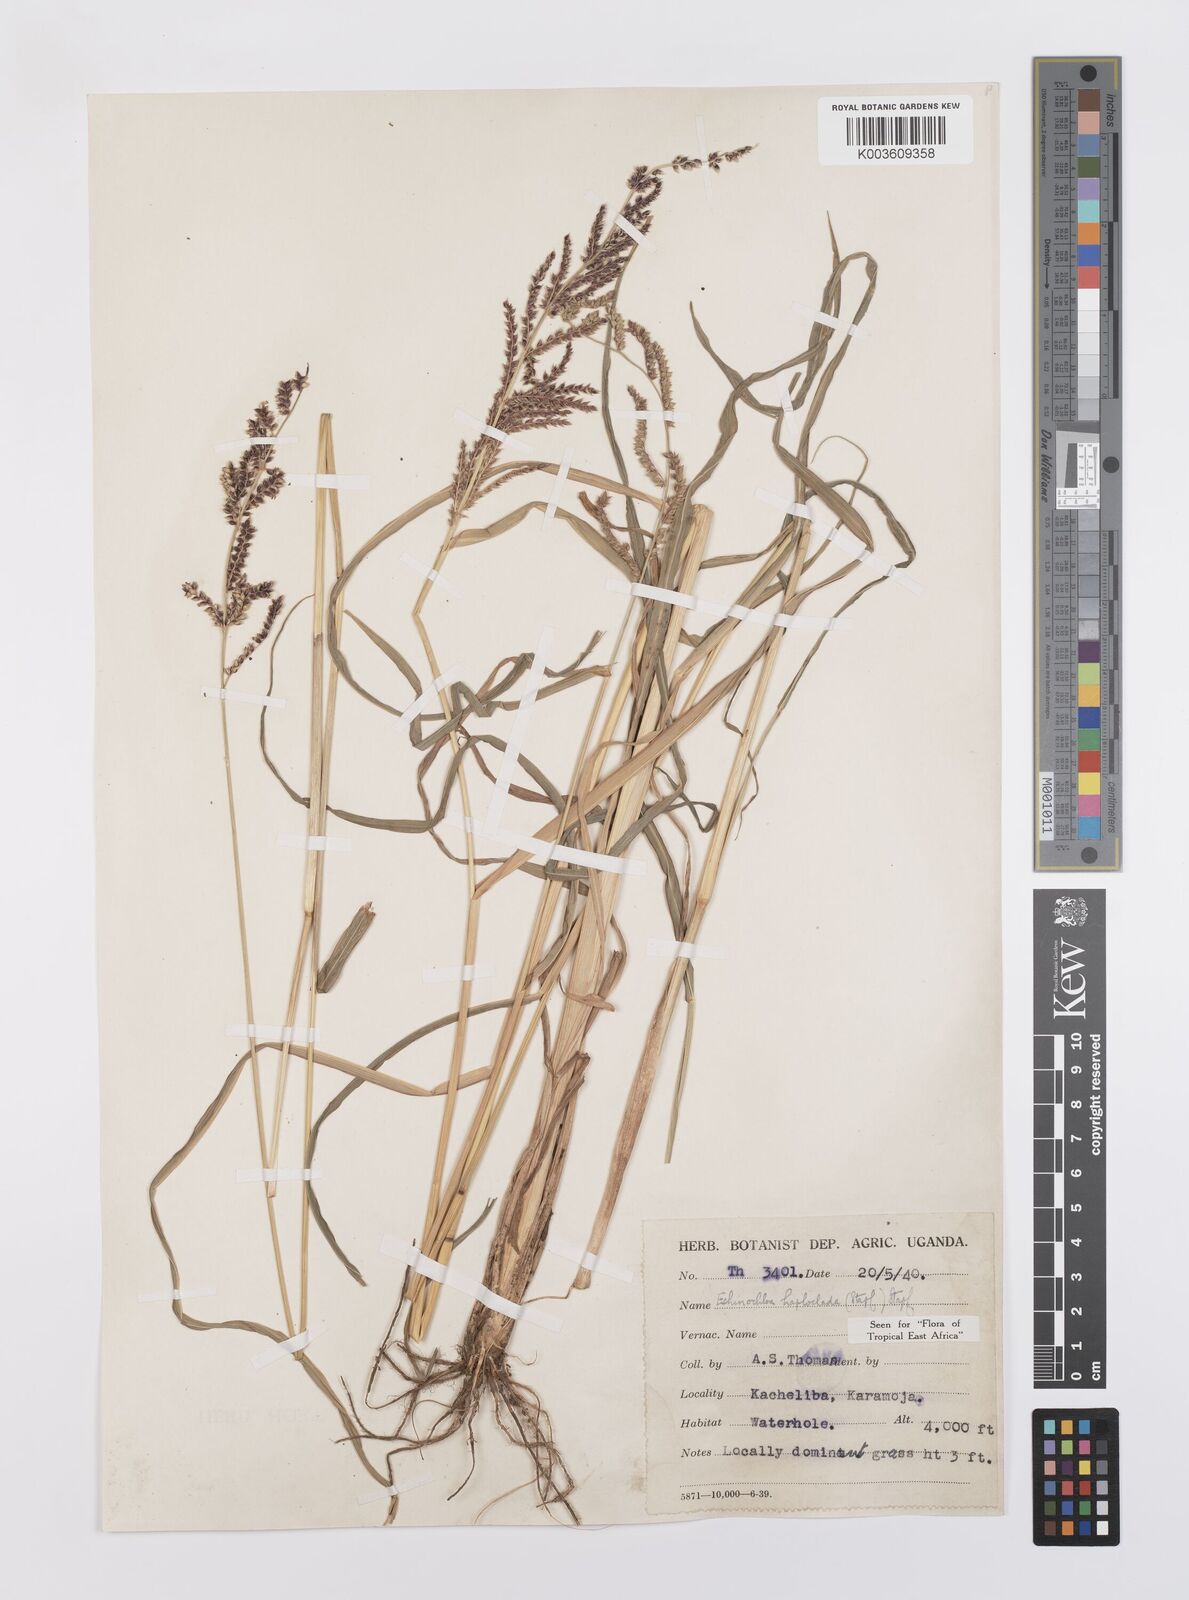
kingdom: Plantae
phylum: Tracheophyta
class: Liliopsida
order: Poales
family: Poaceae
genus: Echinochloa
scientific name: Echinochloa haploclada
